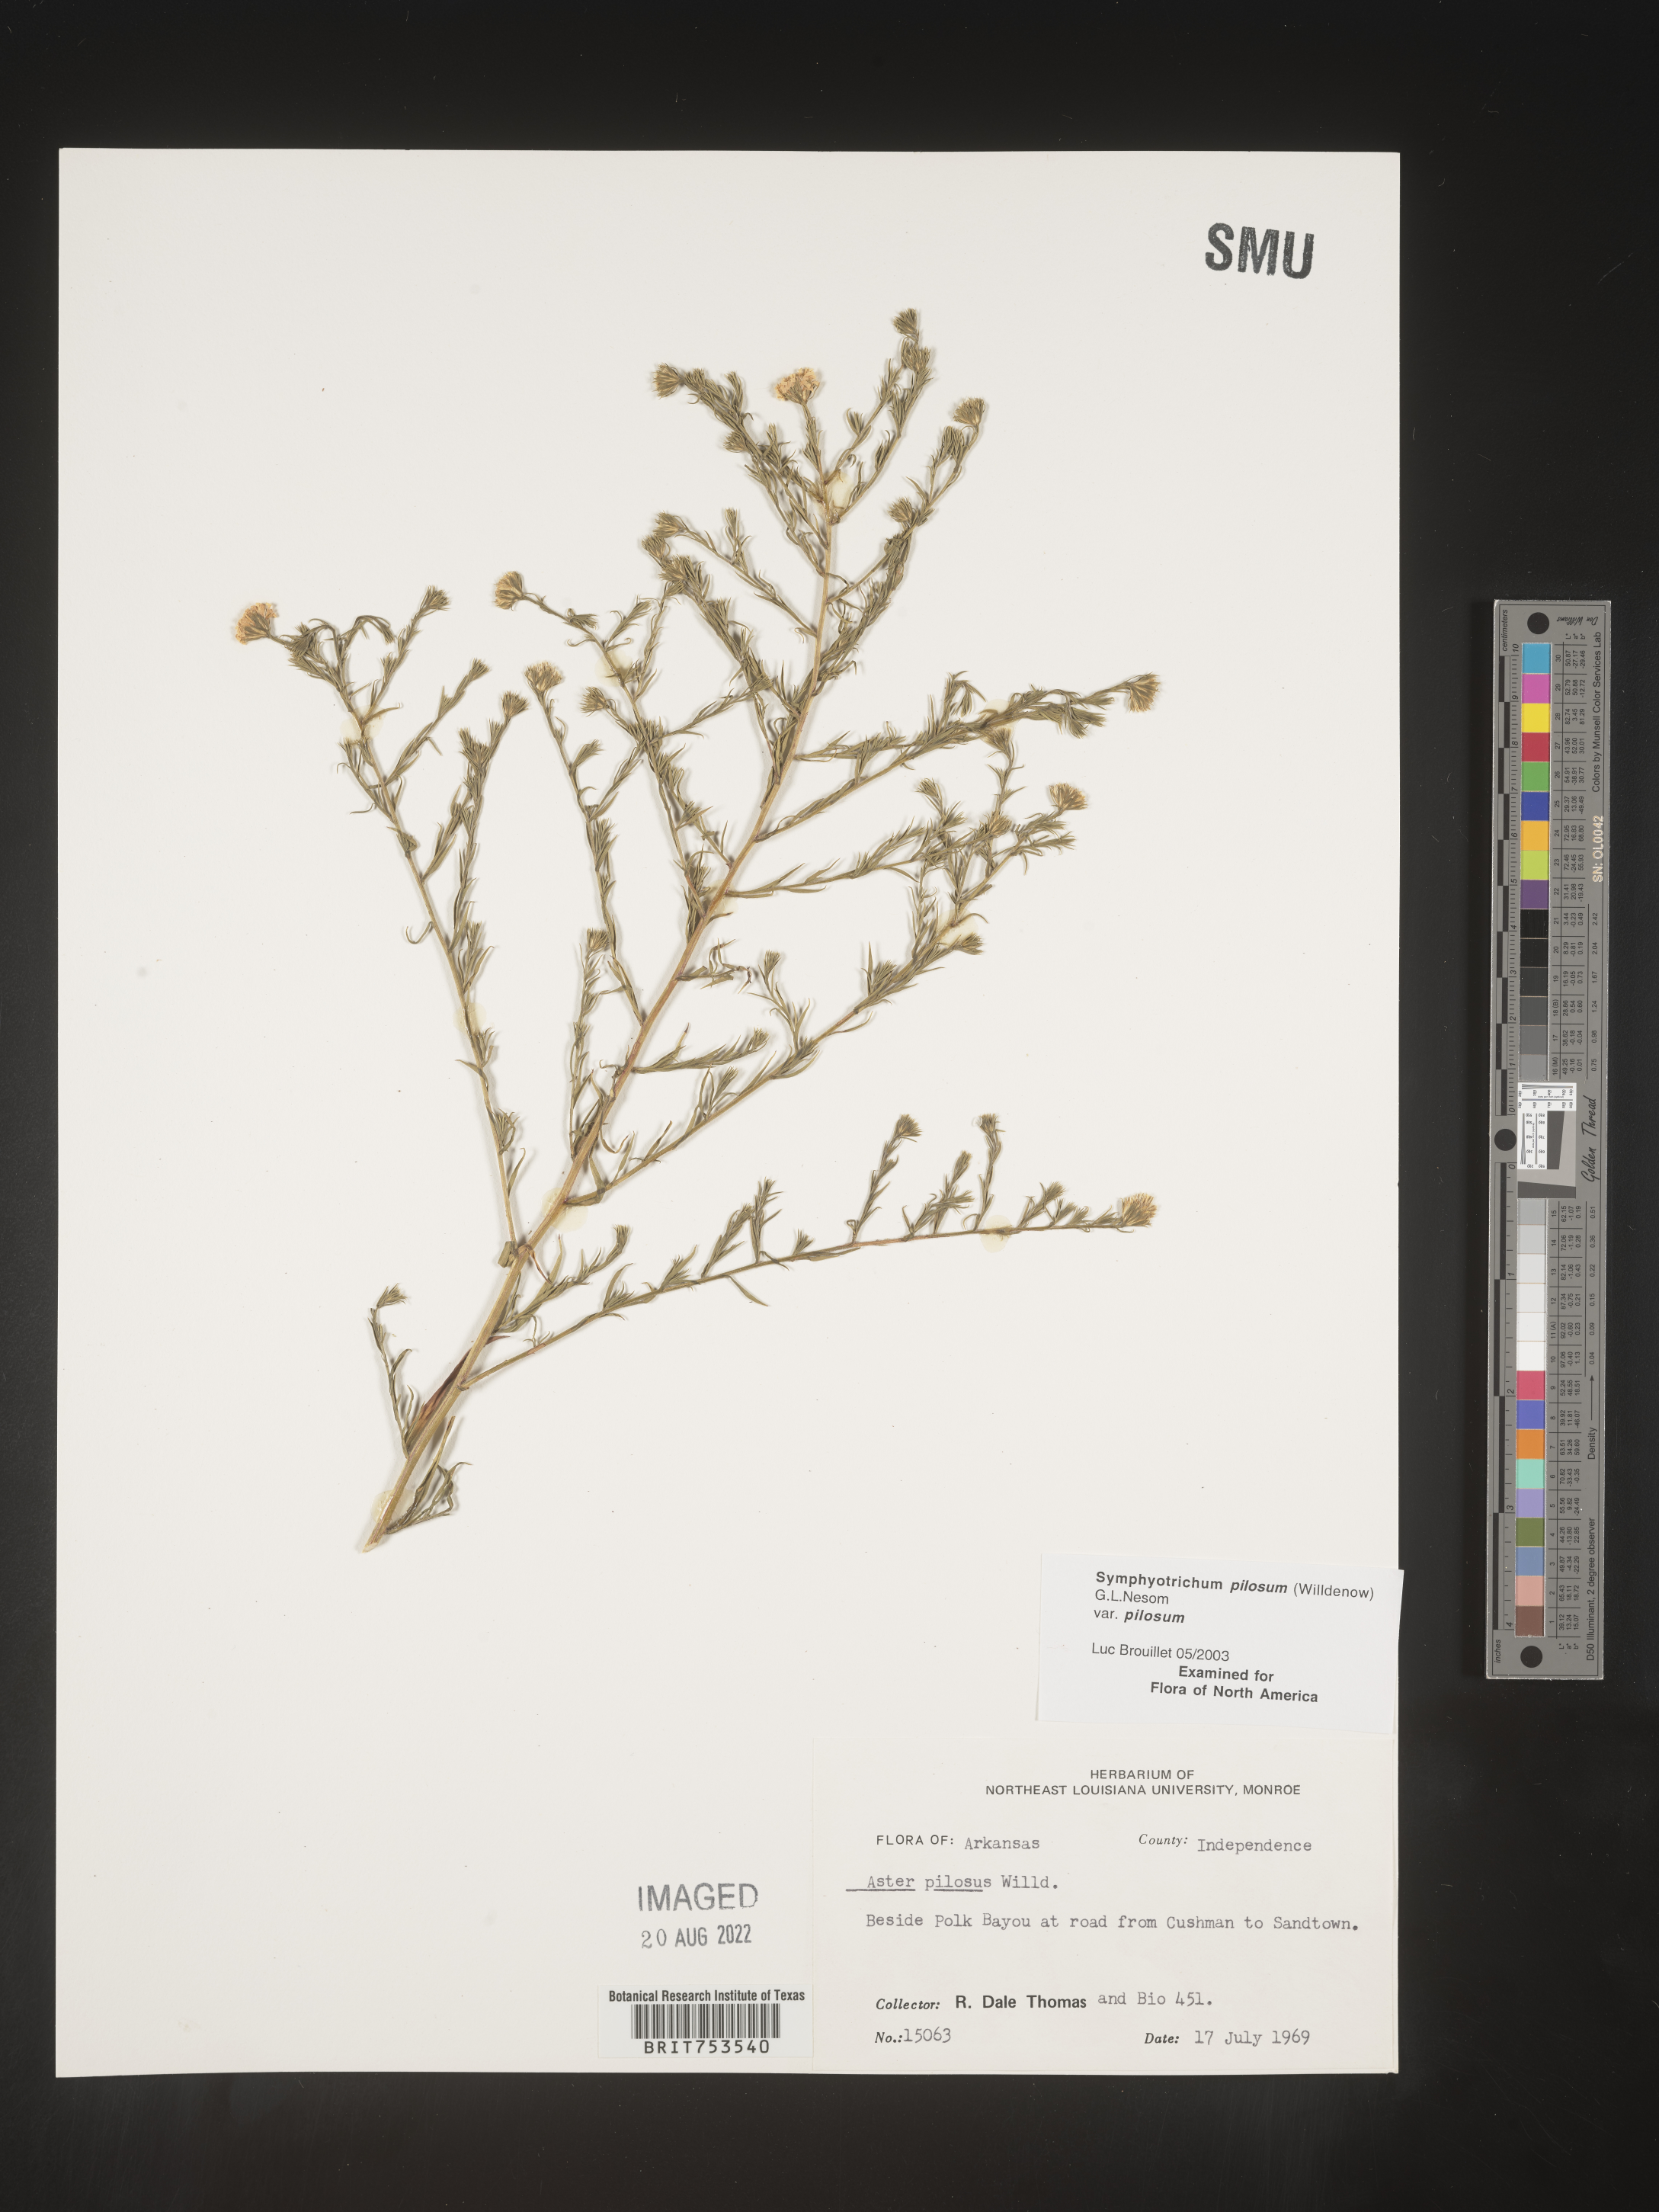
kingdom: Plantae
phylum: Tracheophyta
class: Magnoliopsida
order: Asterales
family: Asteraceae
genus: Symphyotrichum
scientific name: Symphyotrichum pilosum
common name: Awl aster
